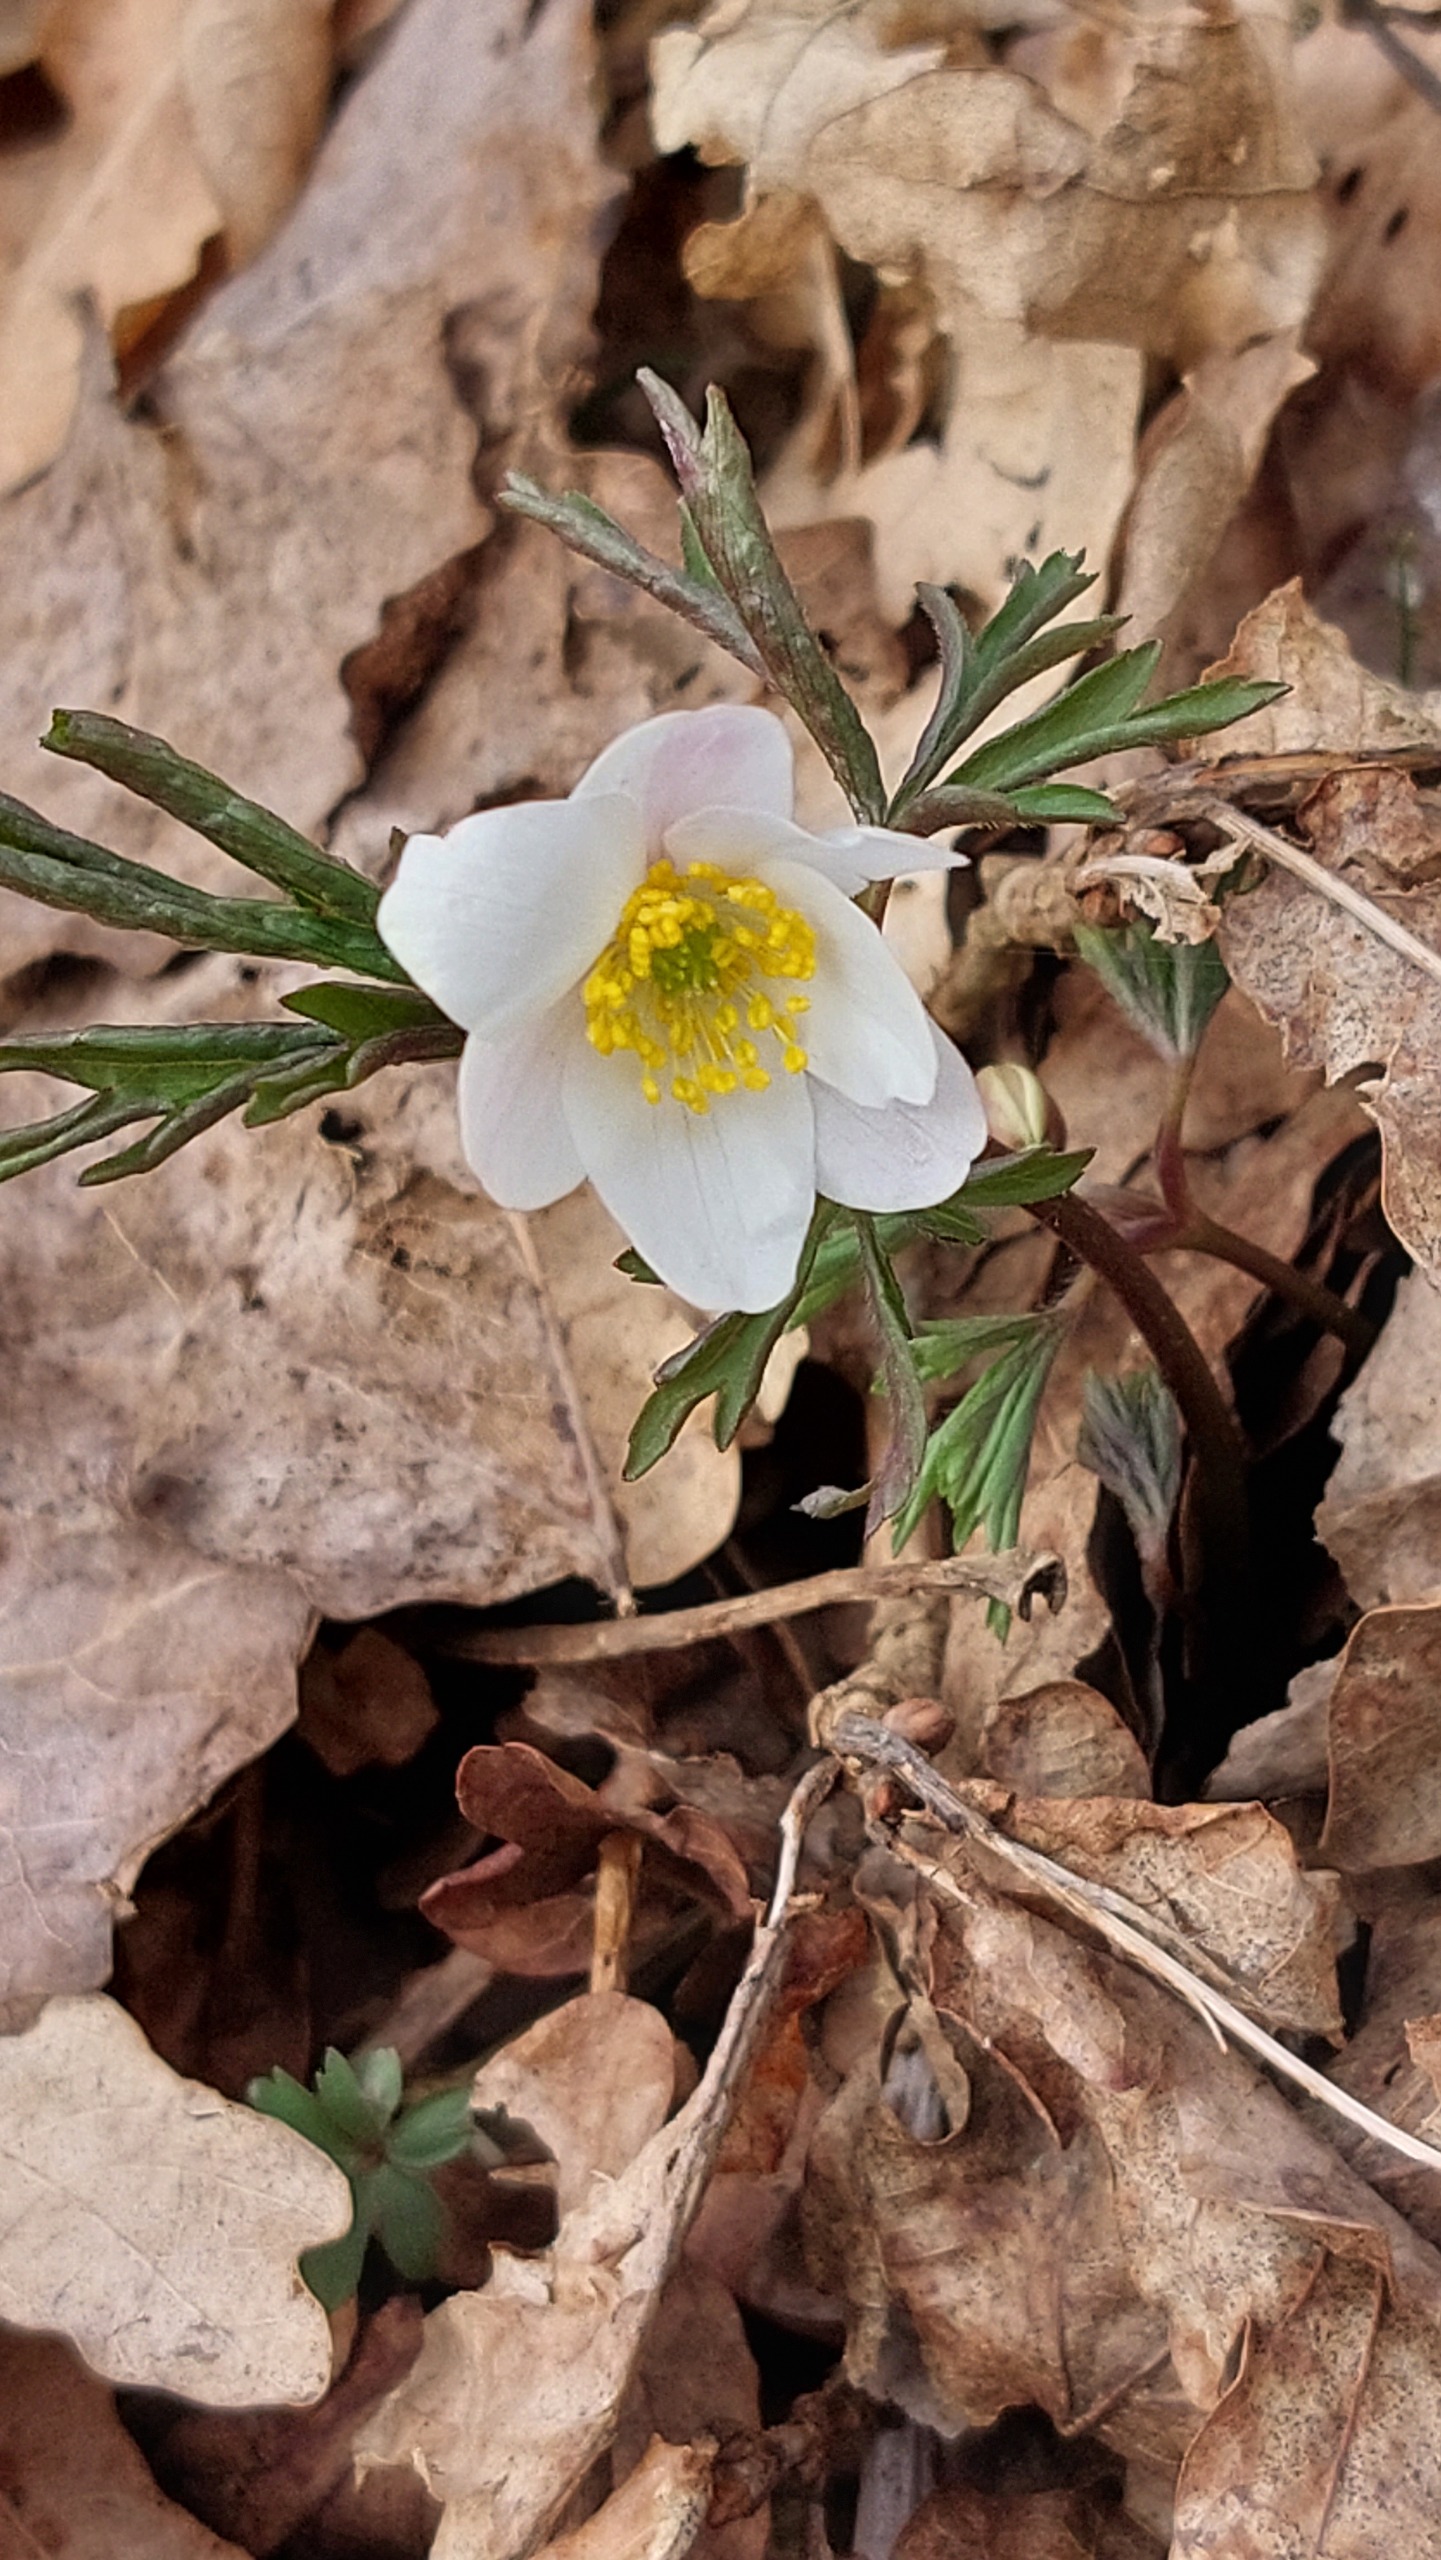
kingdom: Plantae
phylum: Tracheophyta
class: Magnoliopsida
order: Ranunculales
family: Ranunculaceae
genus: Anemone
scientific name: Anemone nemorosa
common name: Hvid anemone
